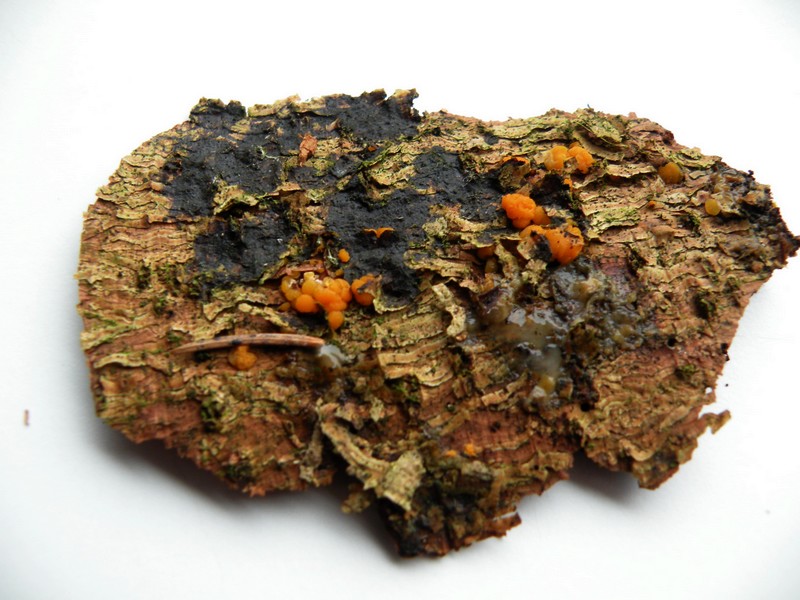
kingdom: Fungi
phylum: Basidiomycota
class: Dacrymycetes
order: Dacrymycetales
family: Dacrymycetaceae
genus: Dacrymyces
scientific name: Dacrymyces stillatus
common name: almindelig tåresvamp
